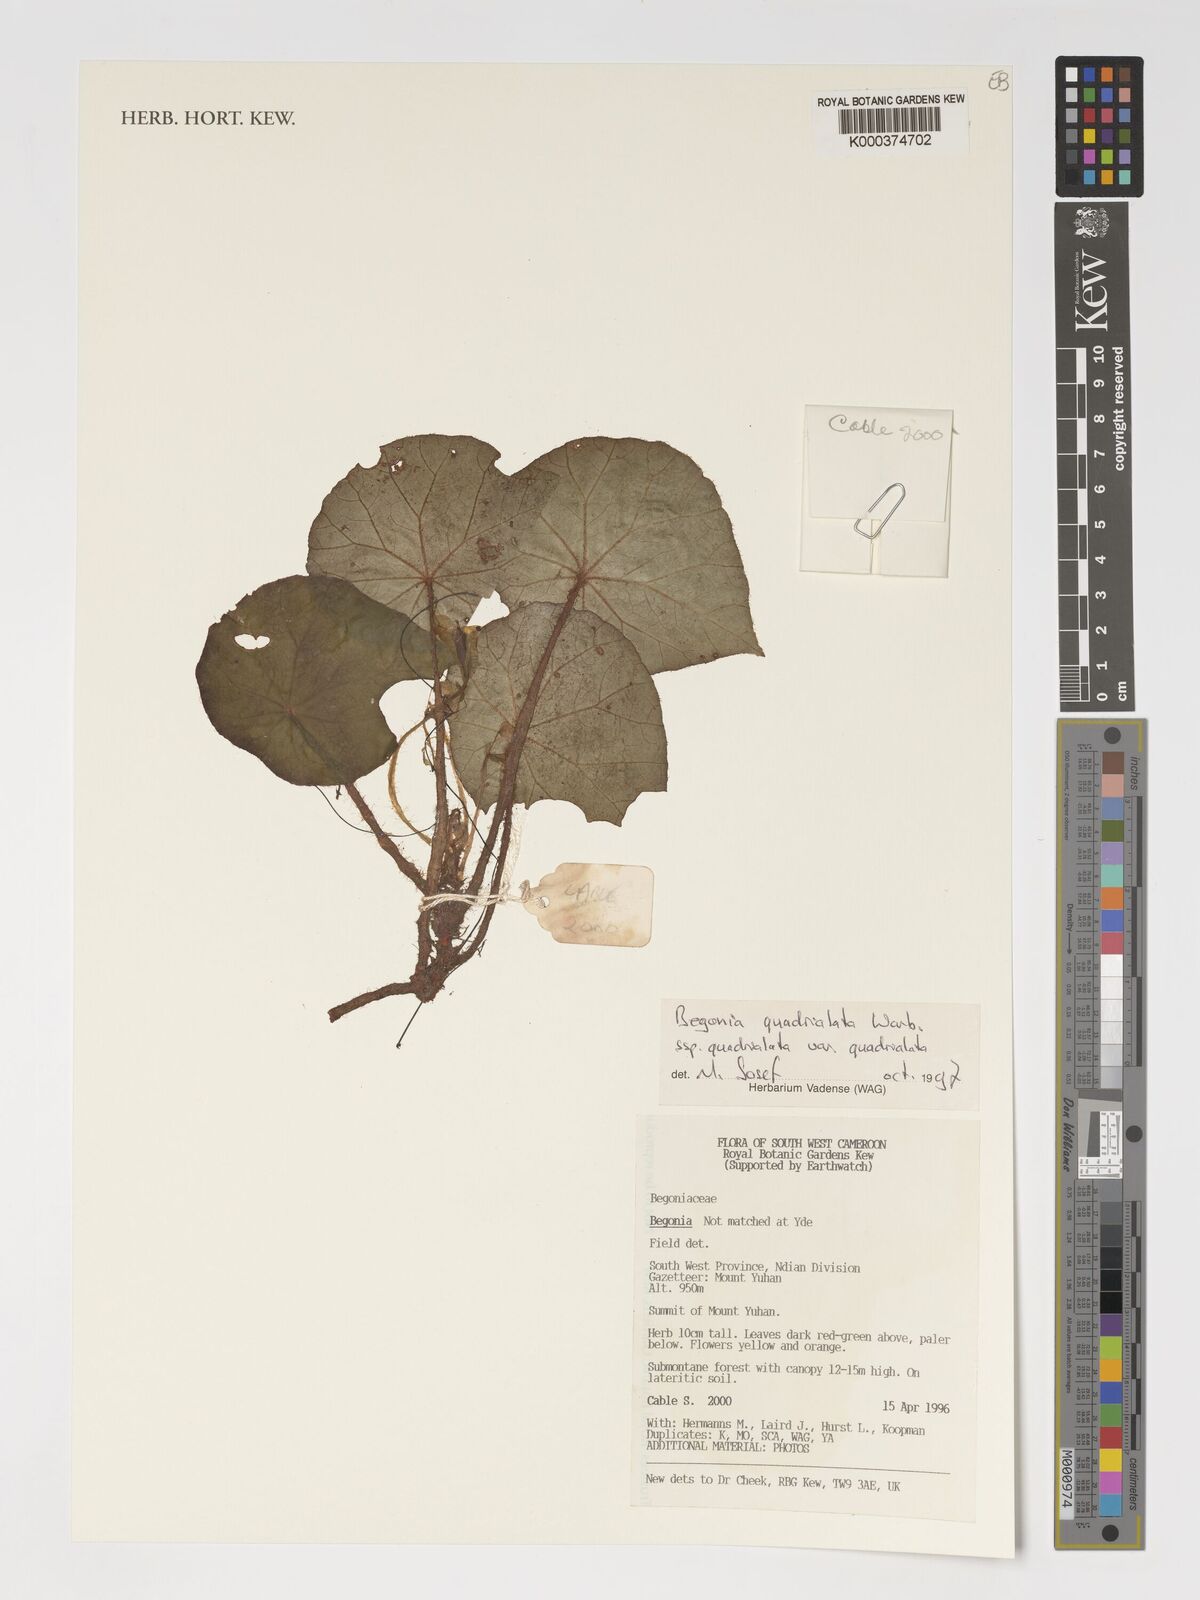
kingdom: Plantae
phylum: Tracheophyta
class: Magnoliopsida
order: Cucurbitales
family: Begoniaceae
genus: Begonia
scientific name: Begonia quadrialata
